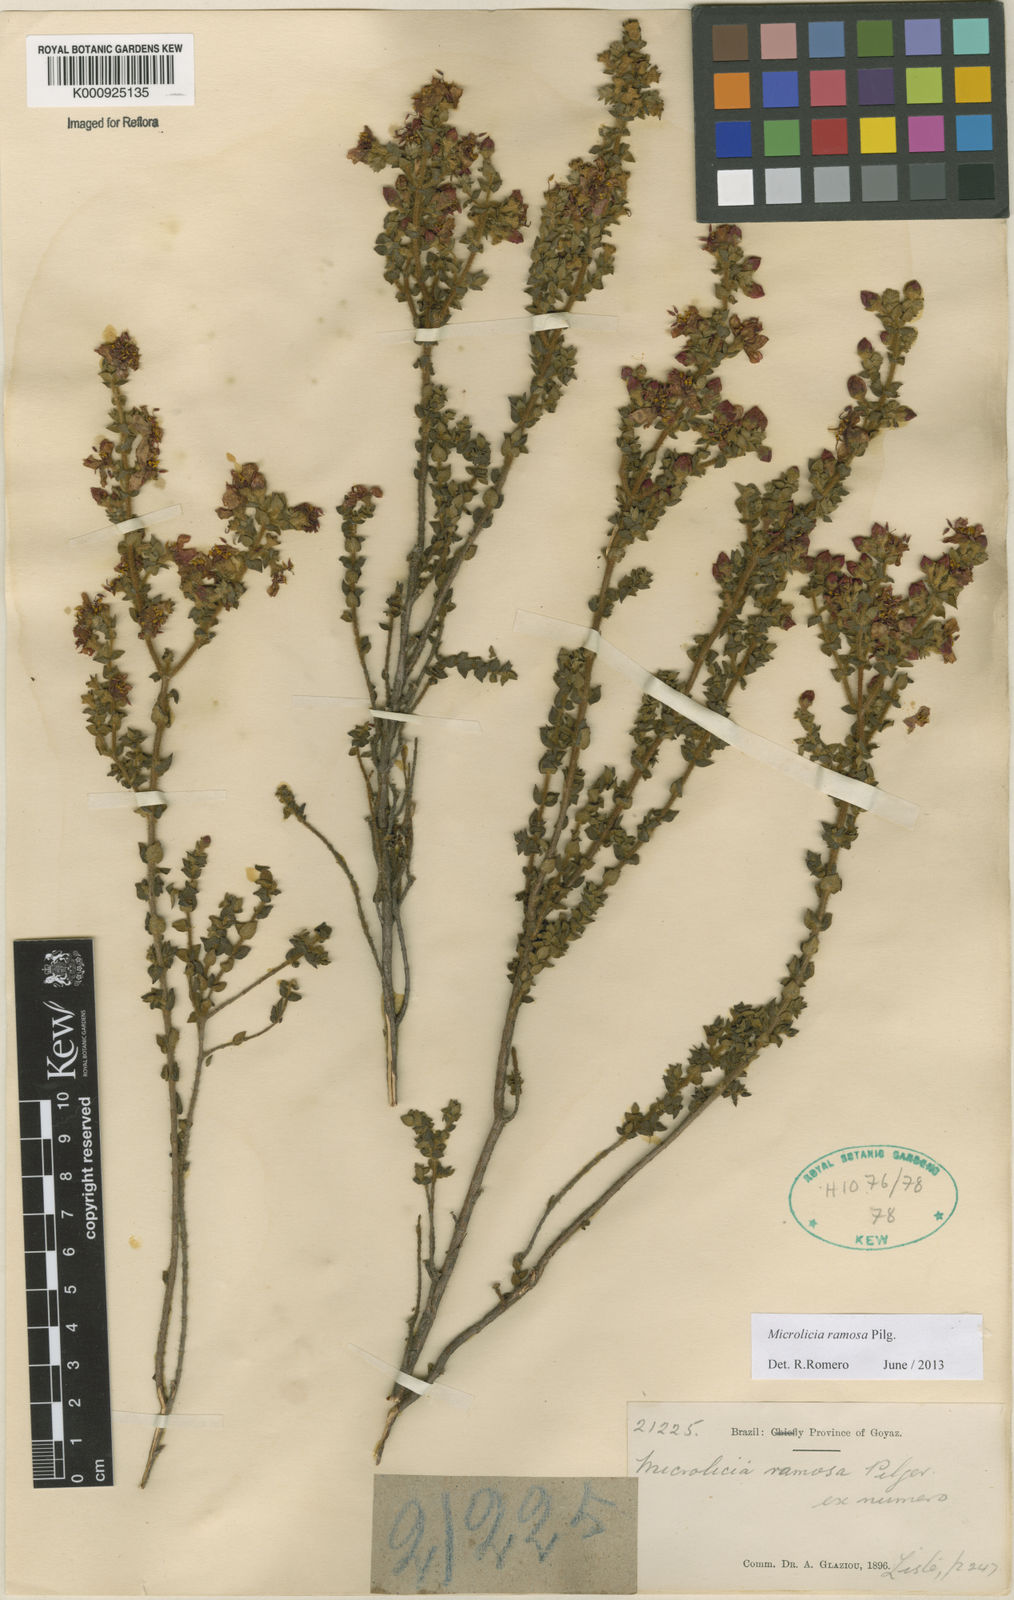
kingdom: Plantae
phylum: Tracheophyta
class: Magnoliopsida
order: Myrtales
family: Melastomataceae
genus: Microlicia
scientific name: Microlicia ramosa
